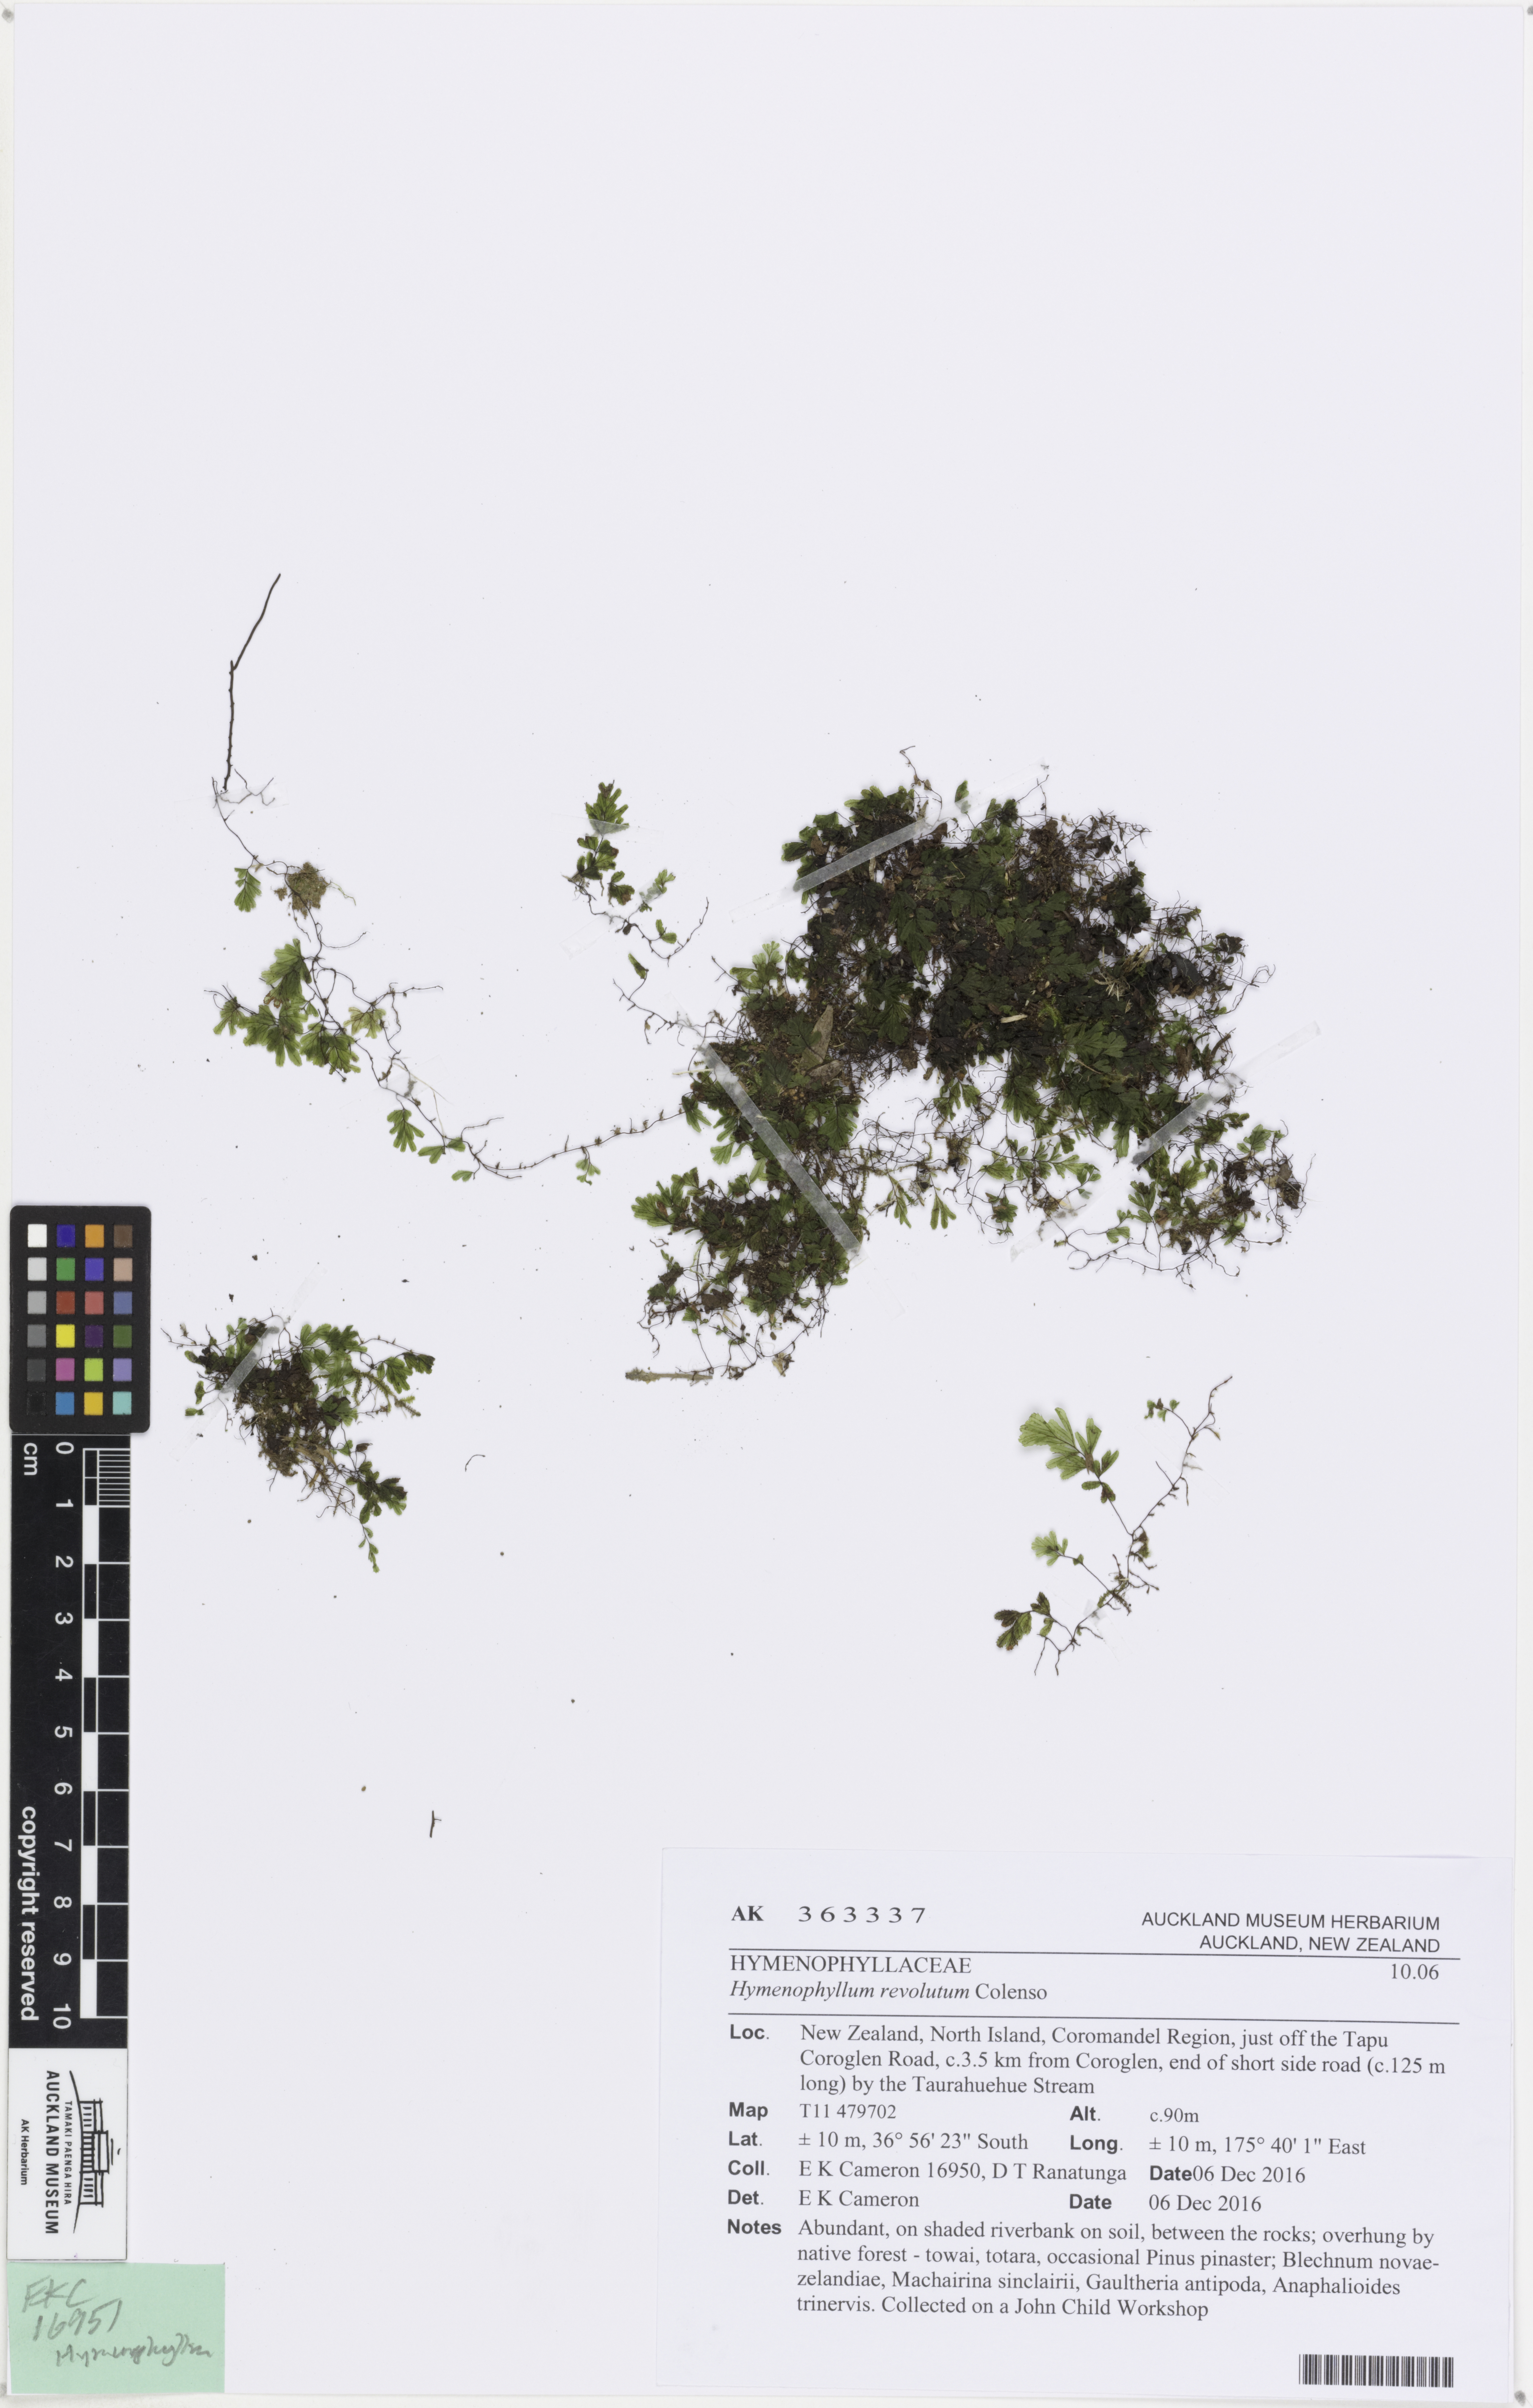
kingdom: Plantae
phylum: Tracheophyta
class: Polypodiopsida
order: Hymenophyllales
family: Hymenophyllaceae
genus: Hymenophyllum
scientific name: Hymenophyllum revolutum
